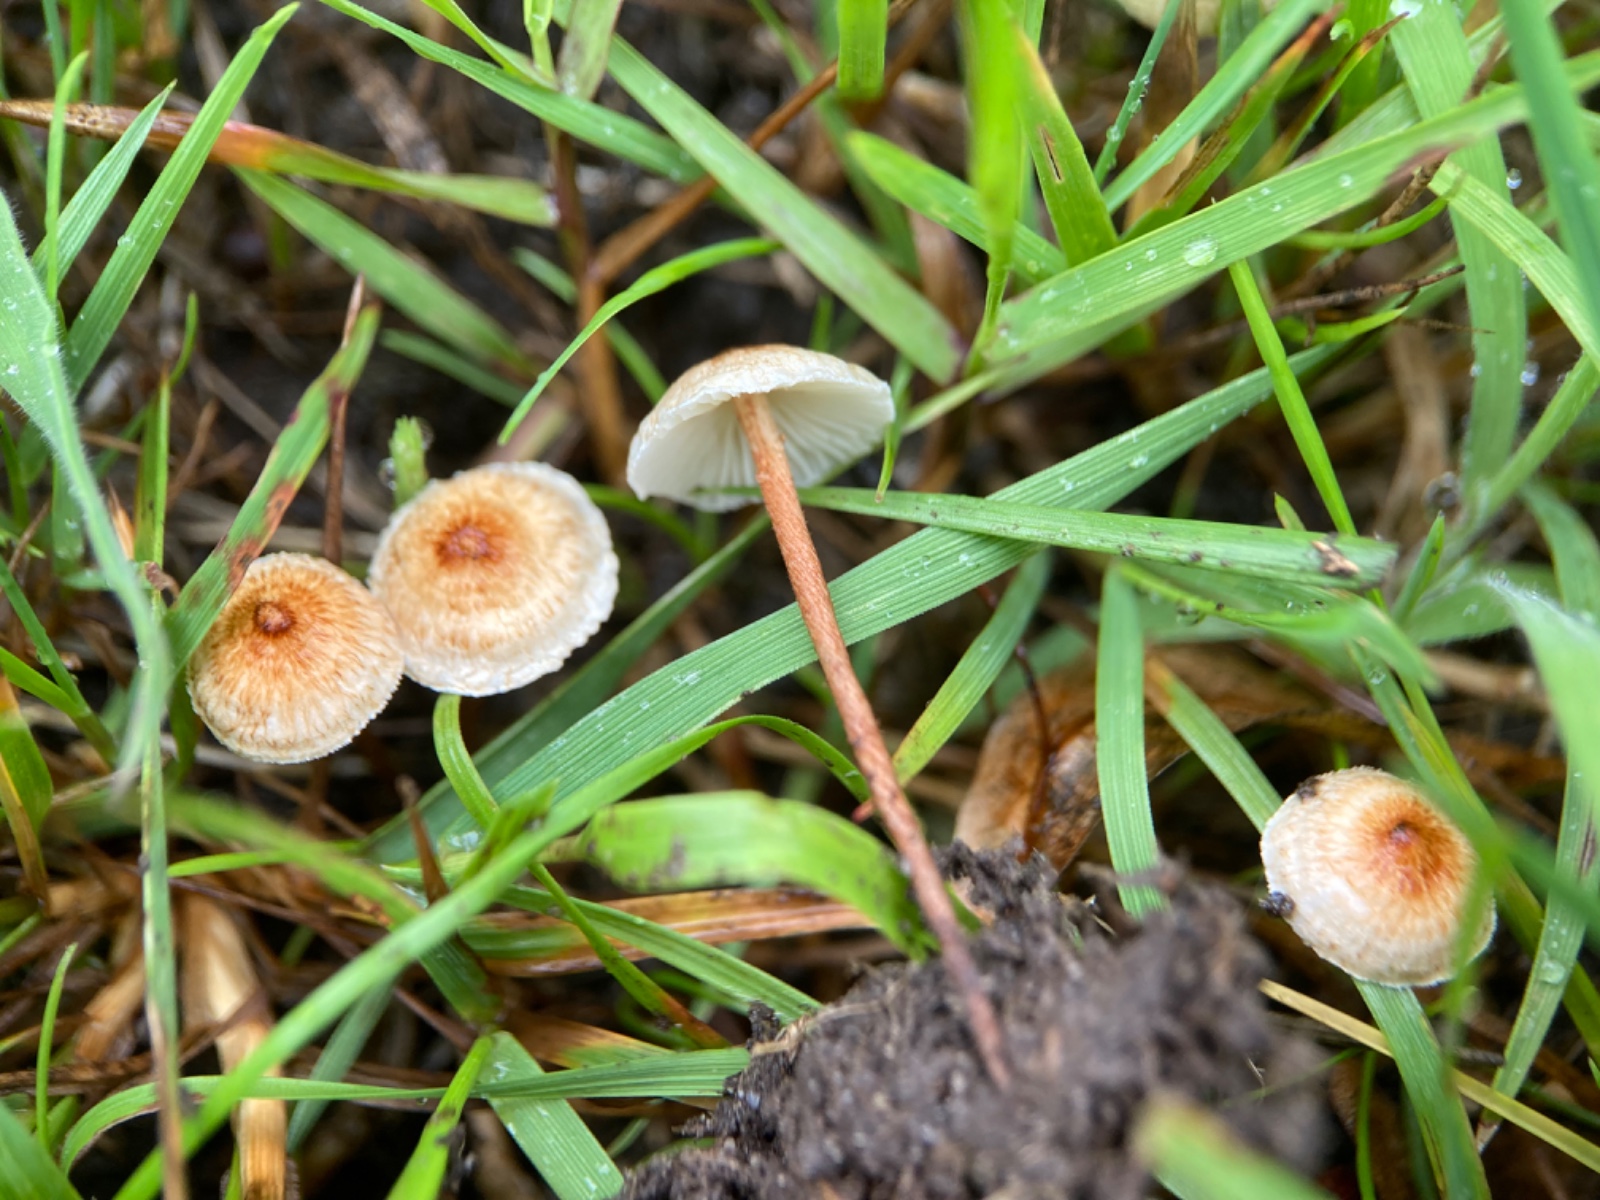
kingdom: Fungi
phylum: Basidiomycota
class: Agaricomycetes
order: Agaricales
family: Marasmiaceae
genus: Crinipellis
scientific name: Crinipellis scabella
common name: børstefod
